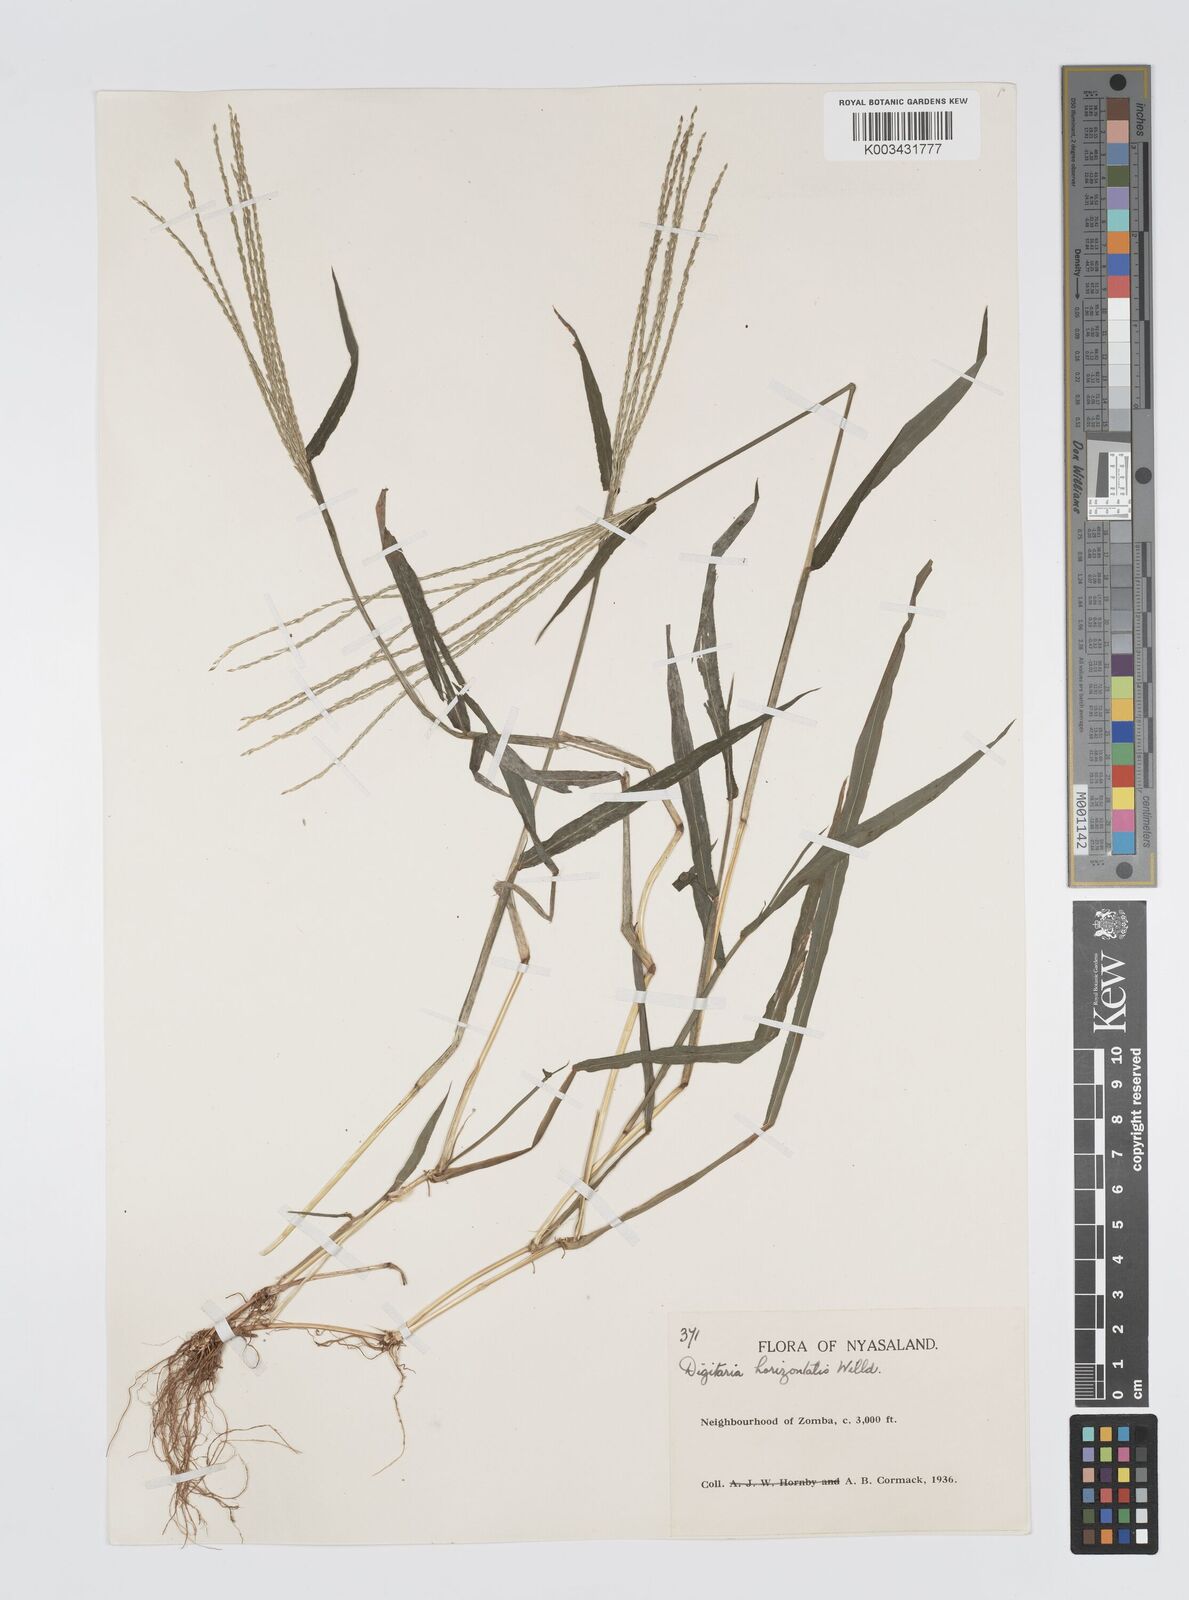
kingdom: Plantae
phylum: Tracheophyta
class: Liliopsida
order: Poales
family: Poaceae
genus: Digitaria
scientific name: Digitaria nuda
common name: Naked crabgrass
